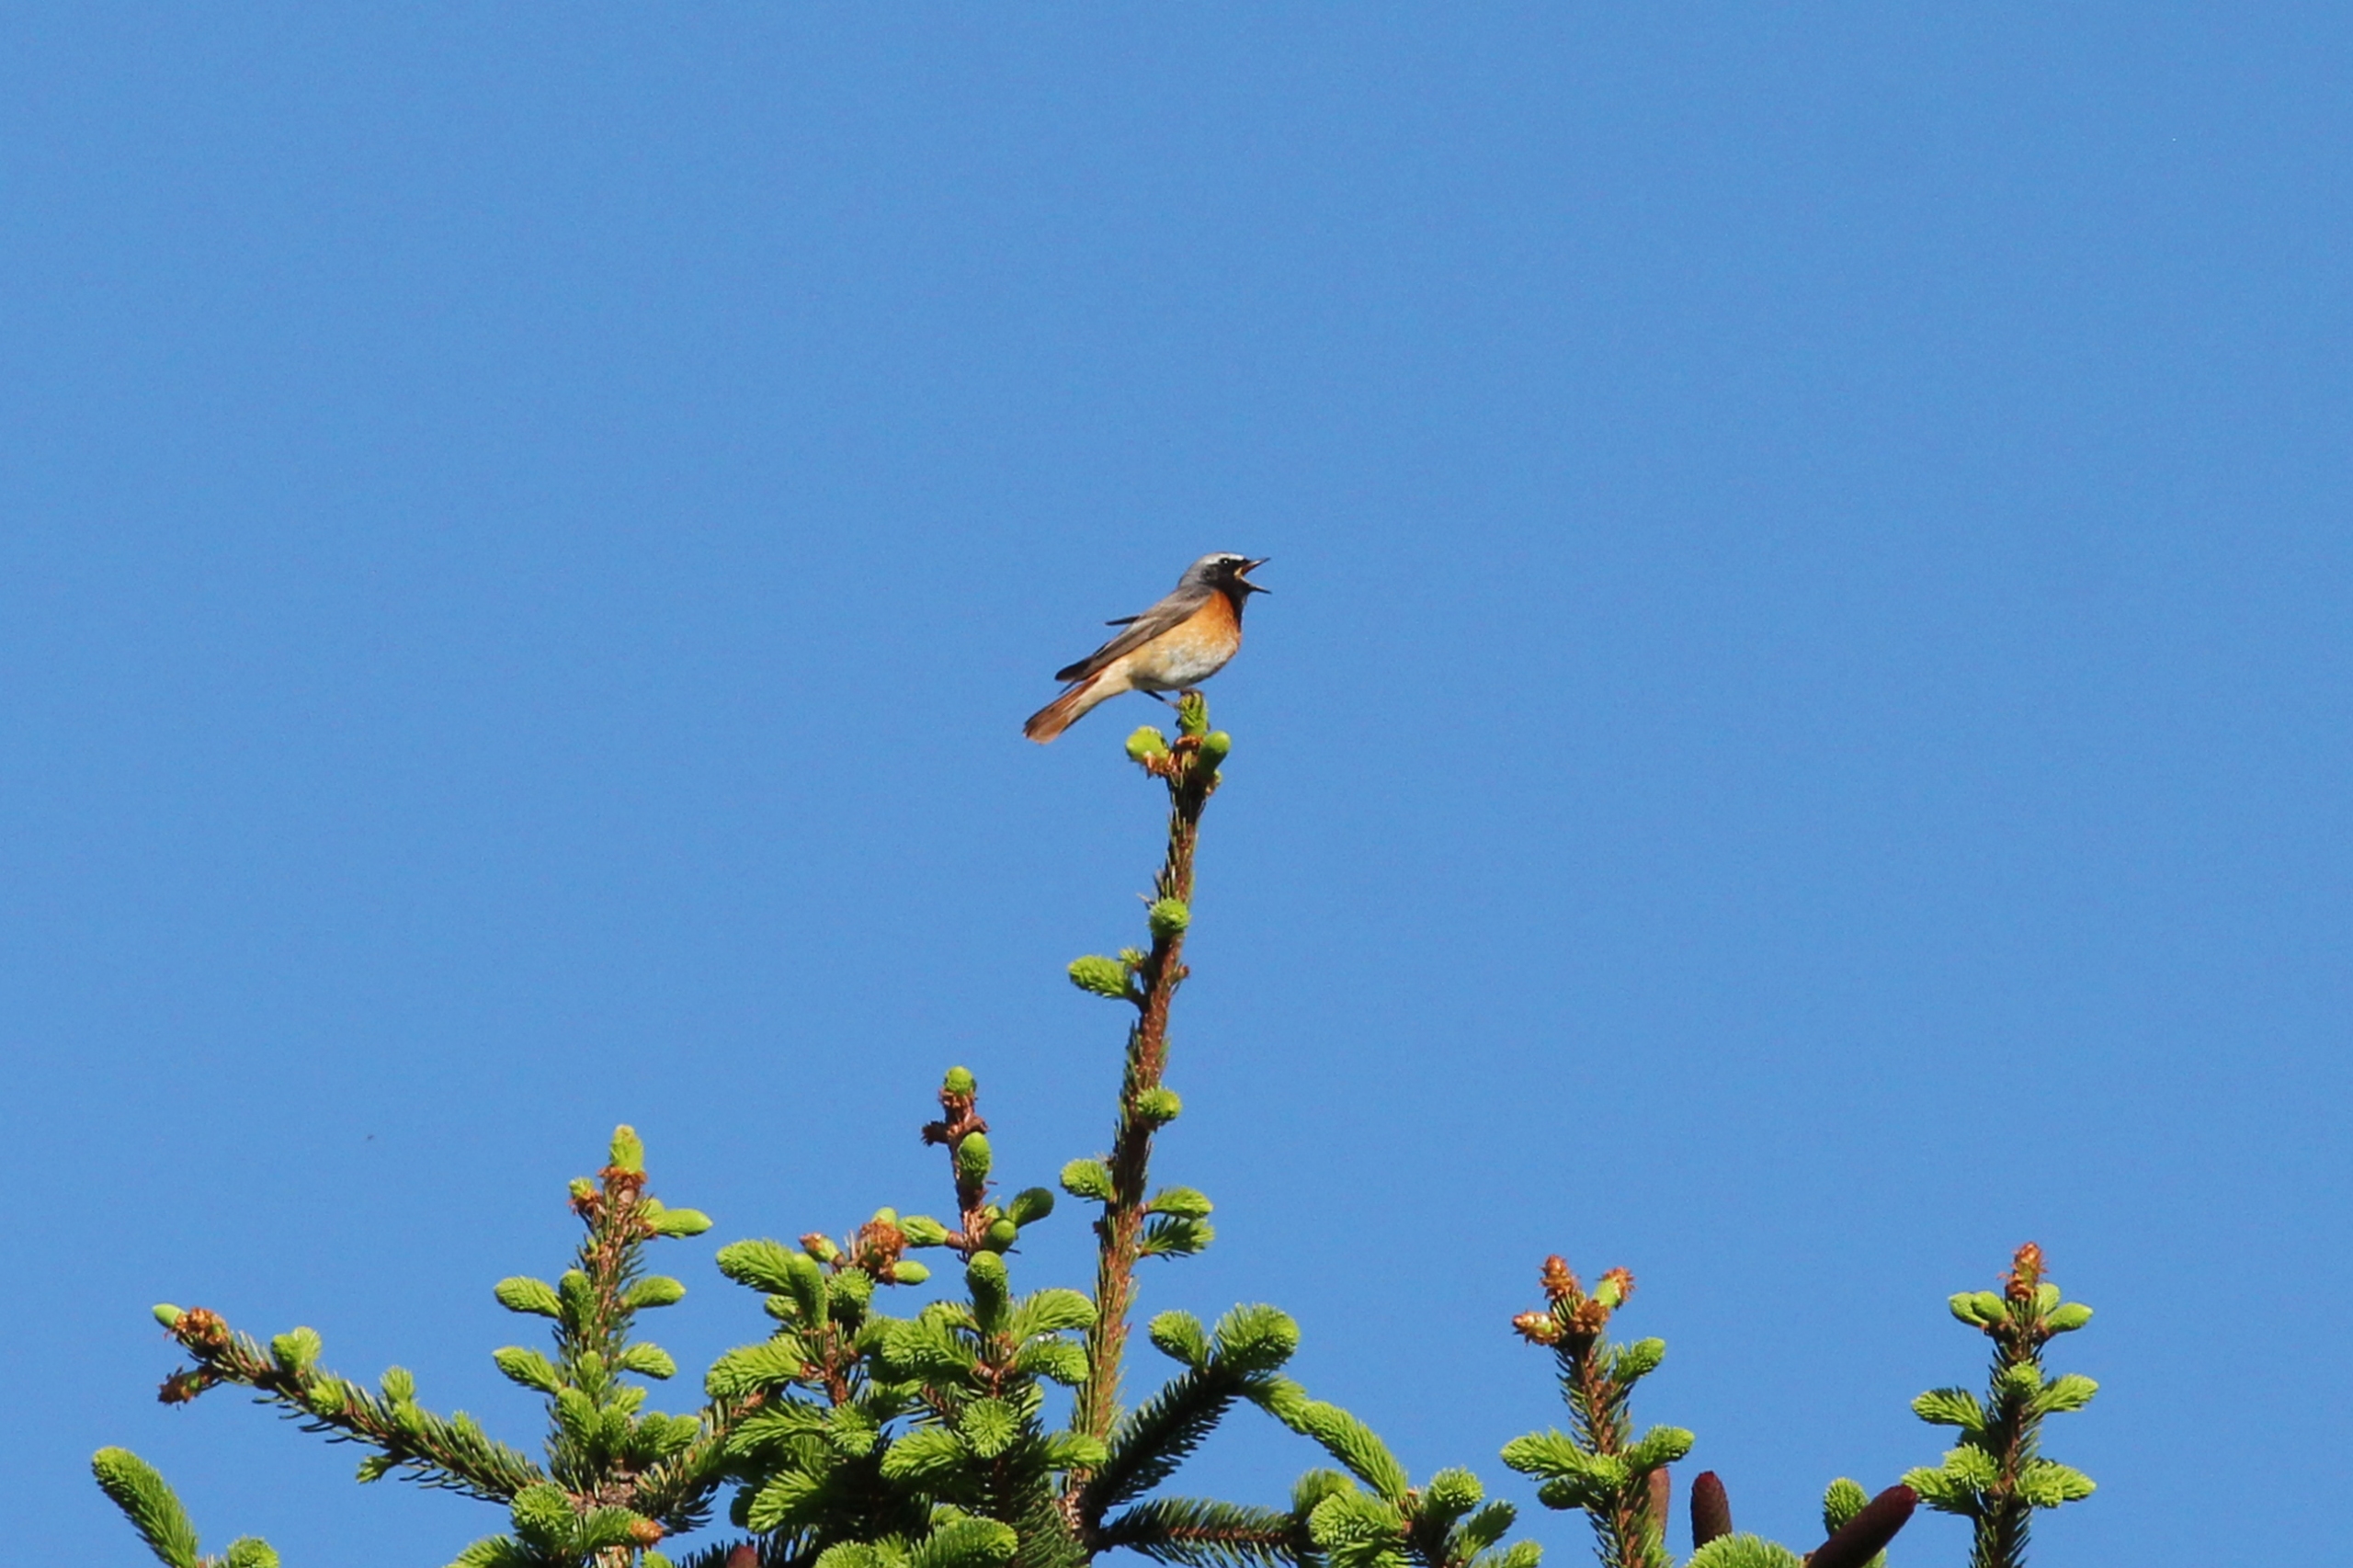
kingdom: Animalia
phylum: Chordata
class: Aves
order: Passeriformes
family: Muscicapidae
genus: Phoenicurus
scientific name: Phoenicurus phoenicurus
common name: Rødstjert
